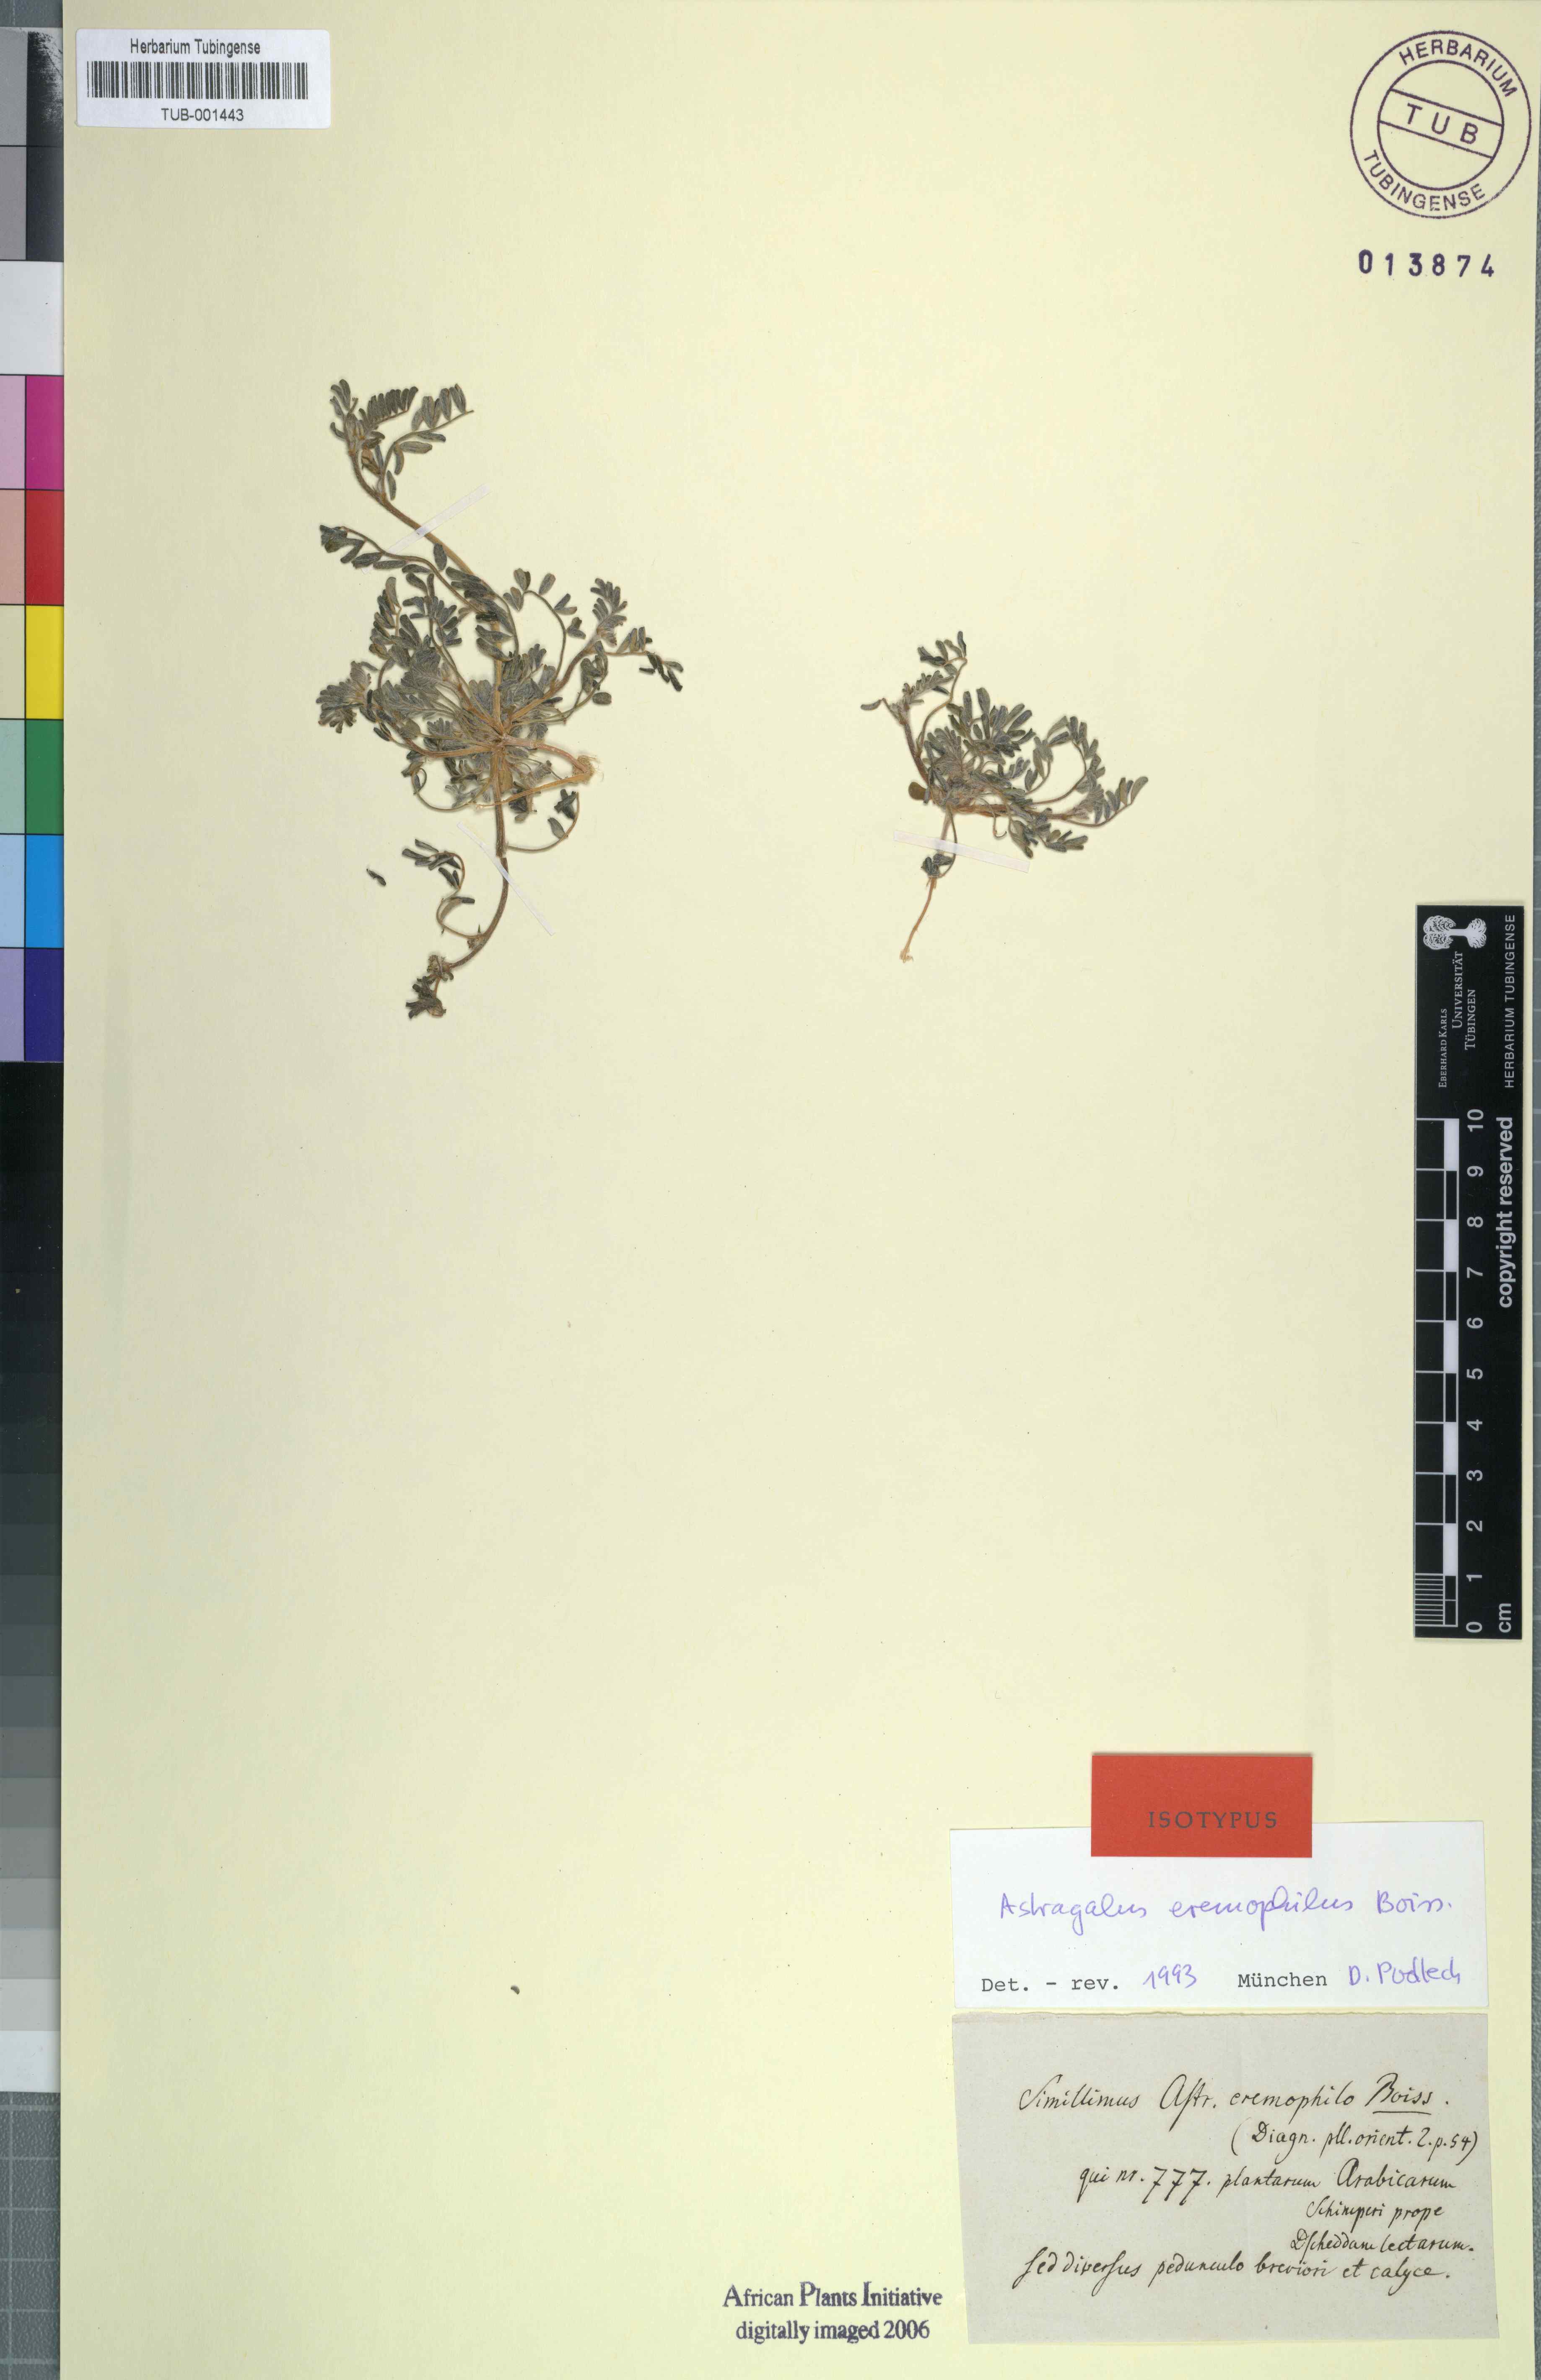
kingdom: Plantae
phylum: Tracheophyta
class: Magnoliopsida
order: Fabales
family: Fabaceae
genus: Astragalus
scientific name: Astragalus eremophilus
